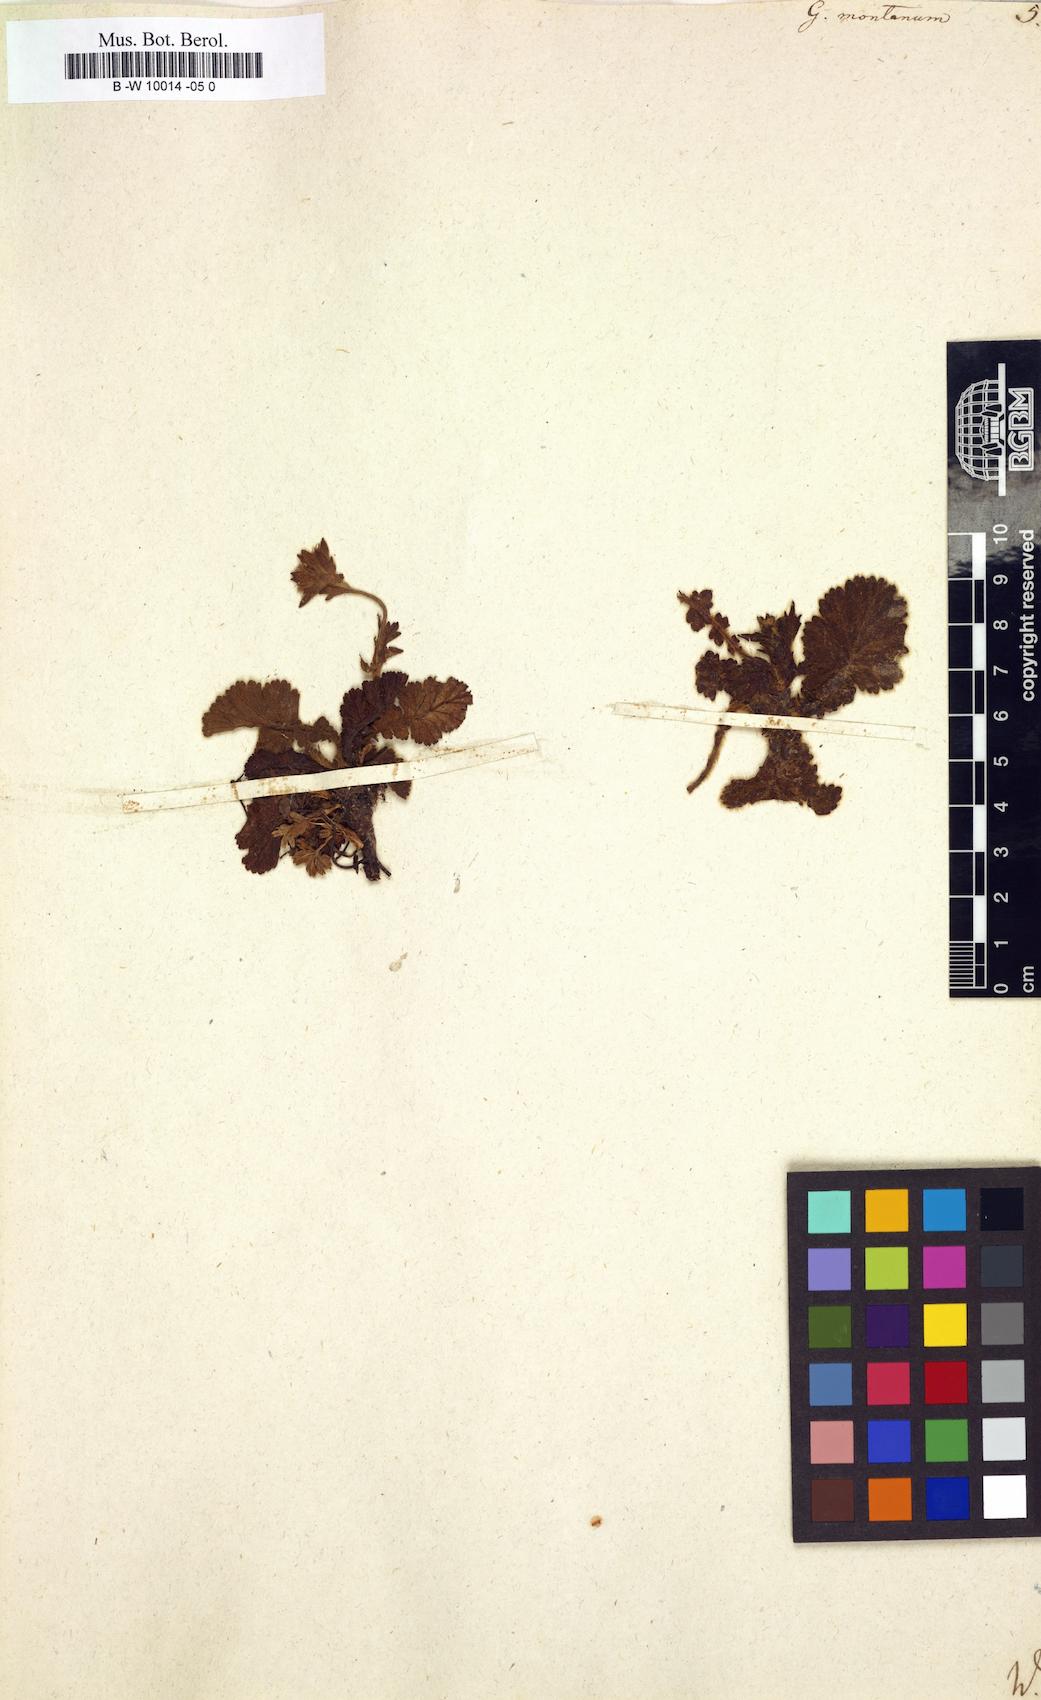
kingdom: Plantae
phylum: Tracheophyta
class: Magnoliopsida
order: Rosales
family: Rosaceae
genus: Geum
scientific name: Geum montanum
